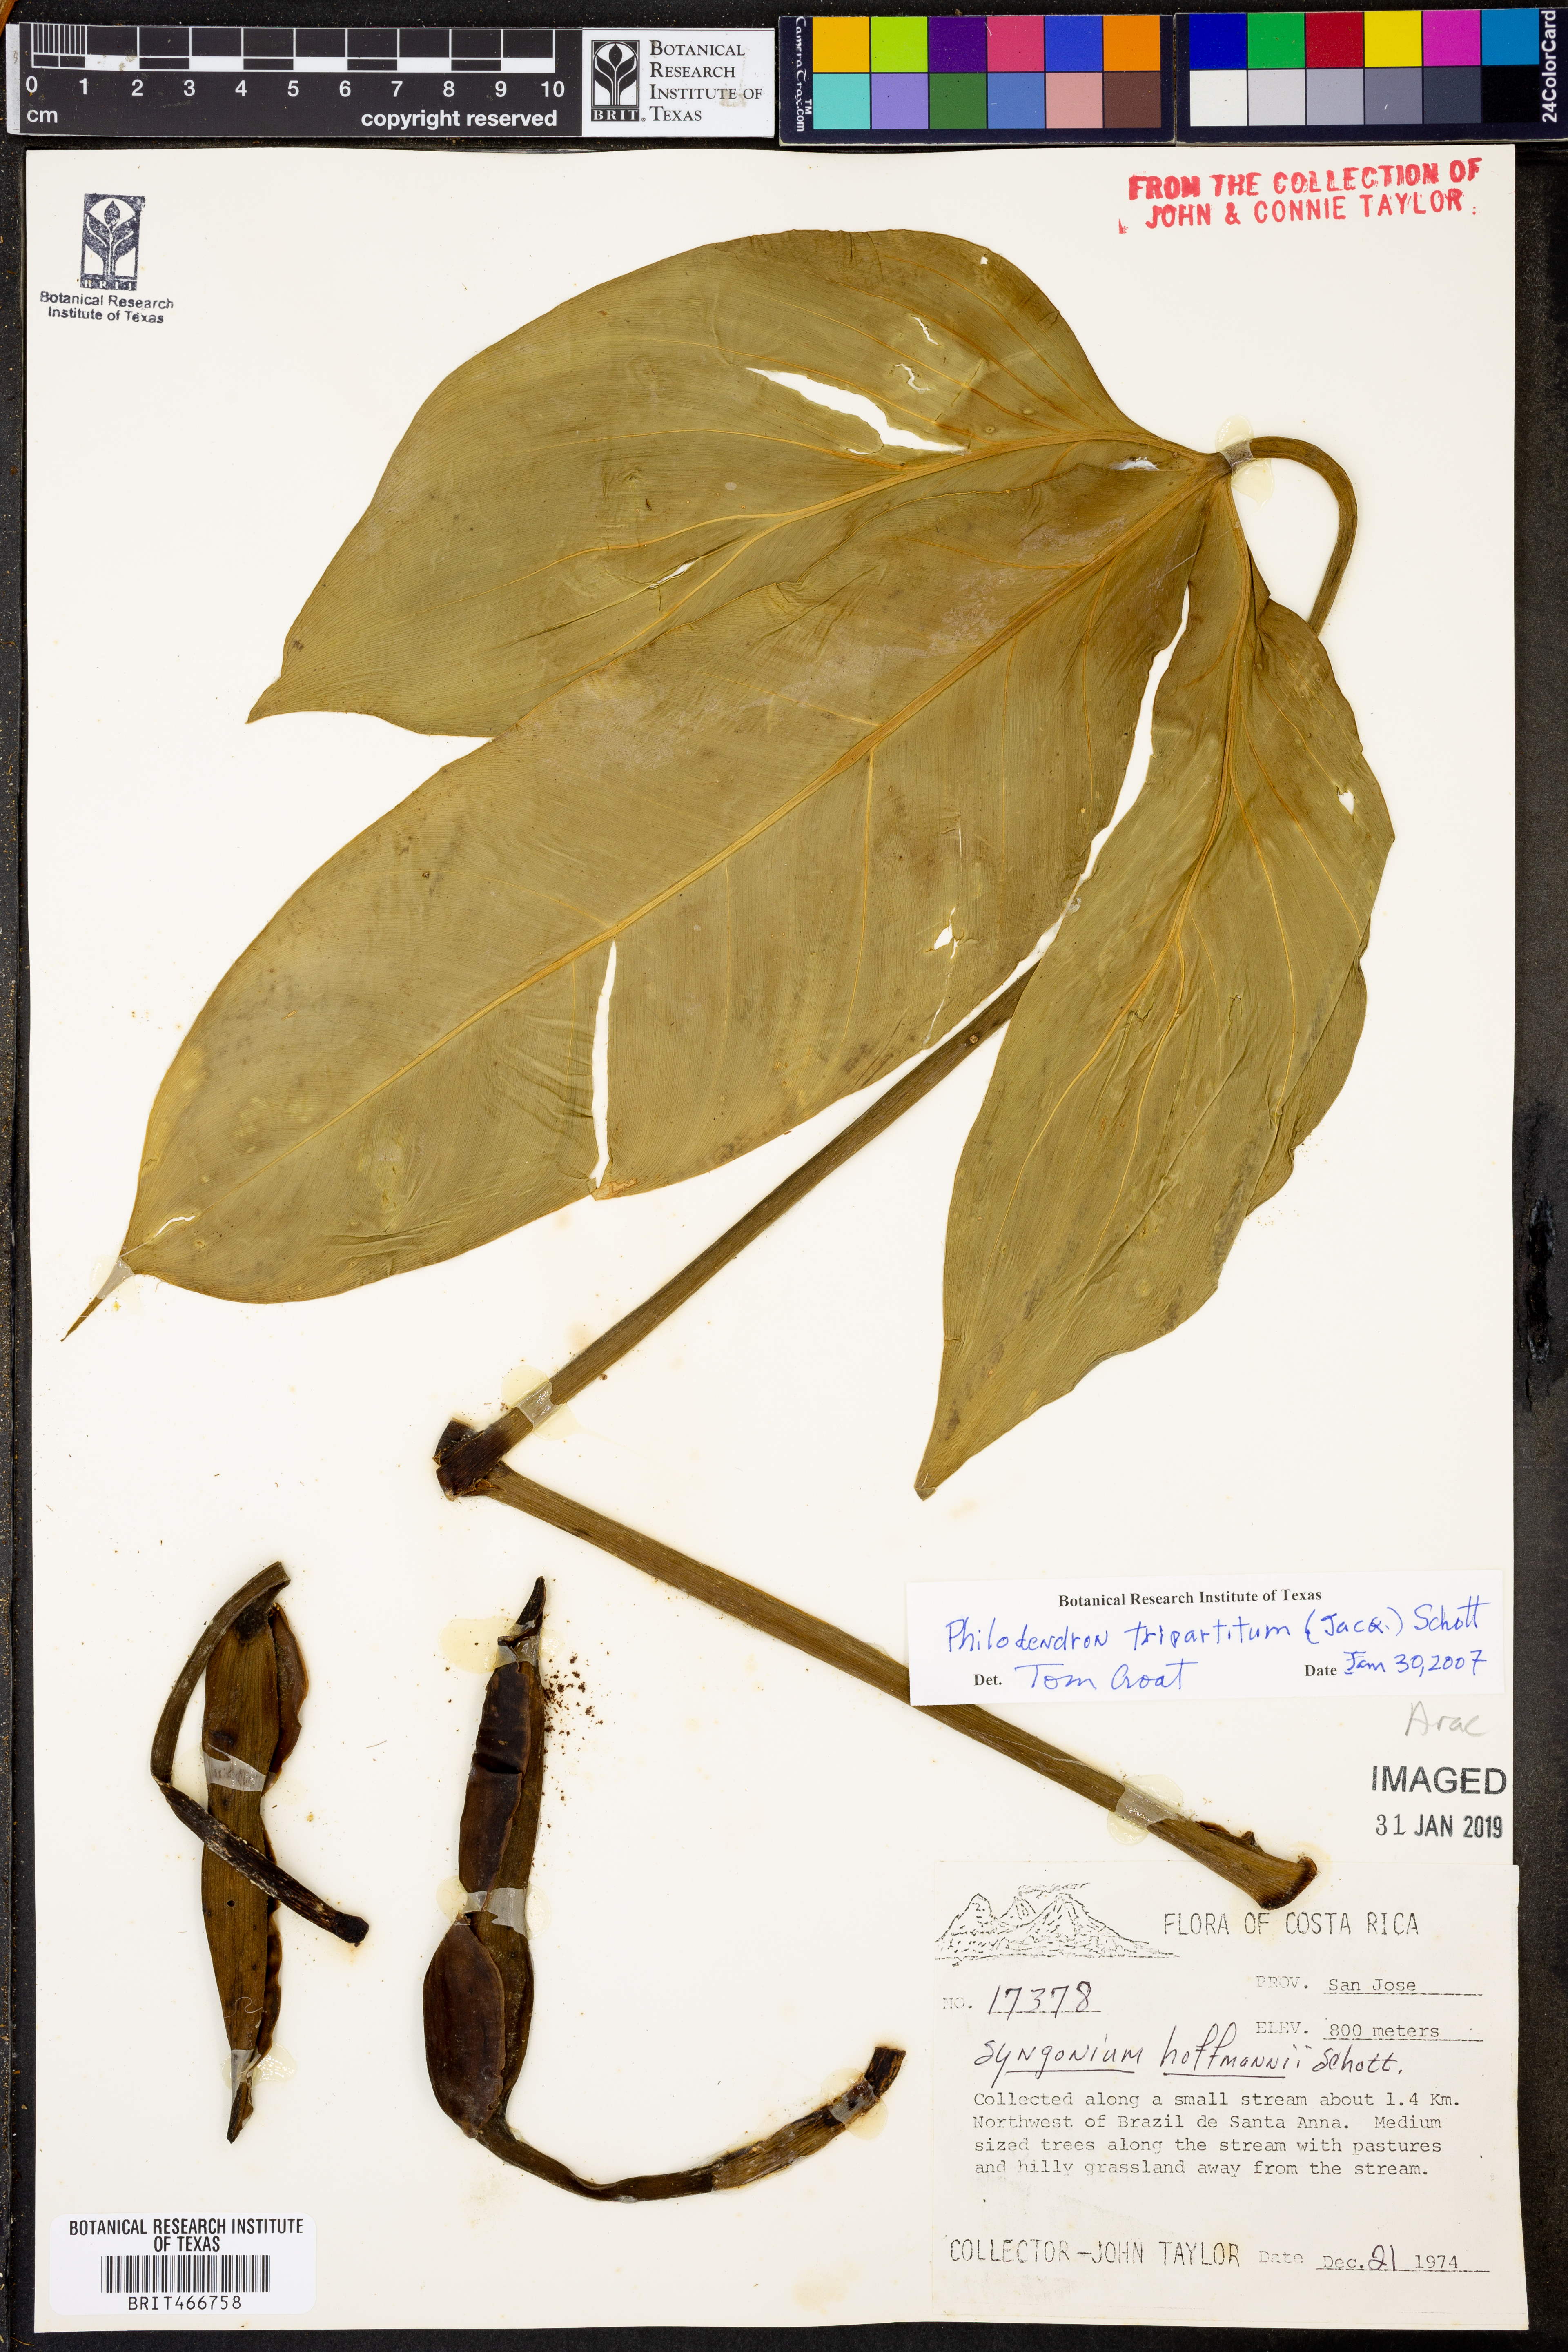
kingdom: Plantae
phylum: Tracheophyta
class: Liliopsida
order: Alismatales
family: Araceae
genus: Philodendron
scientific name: Philodendron tripartitum
